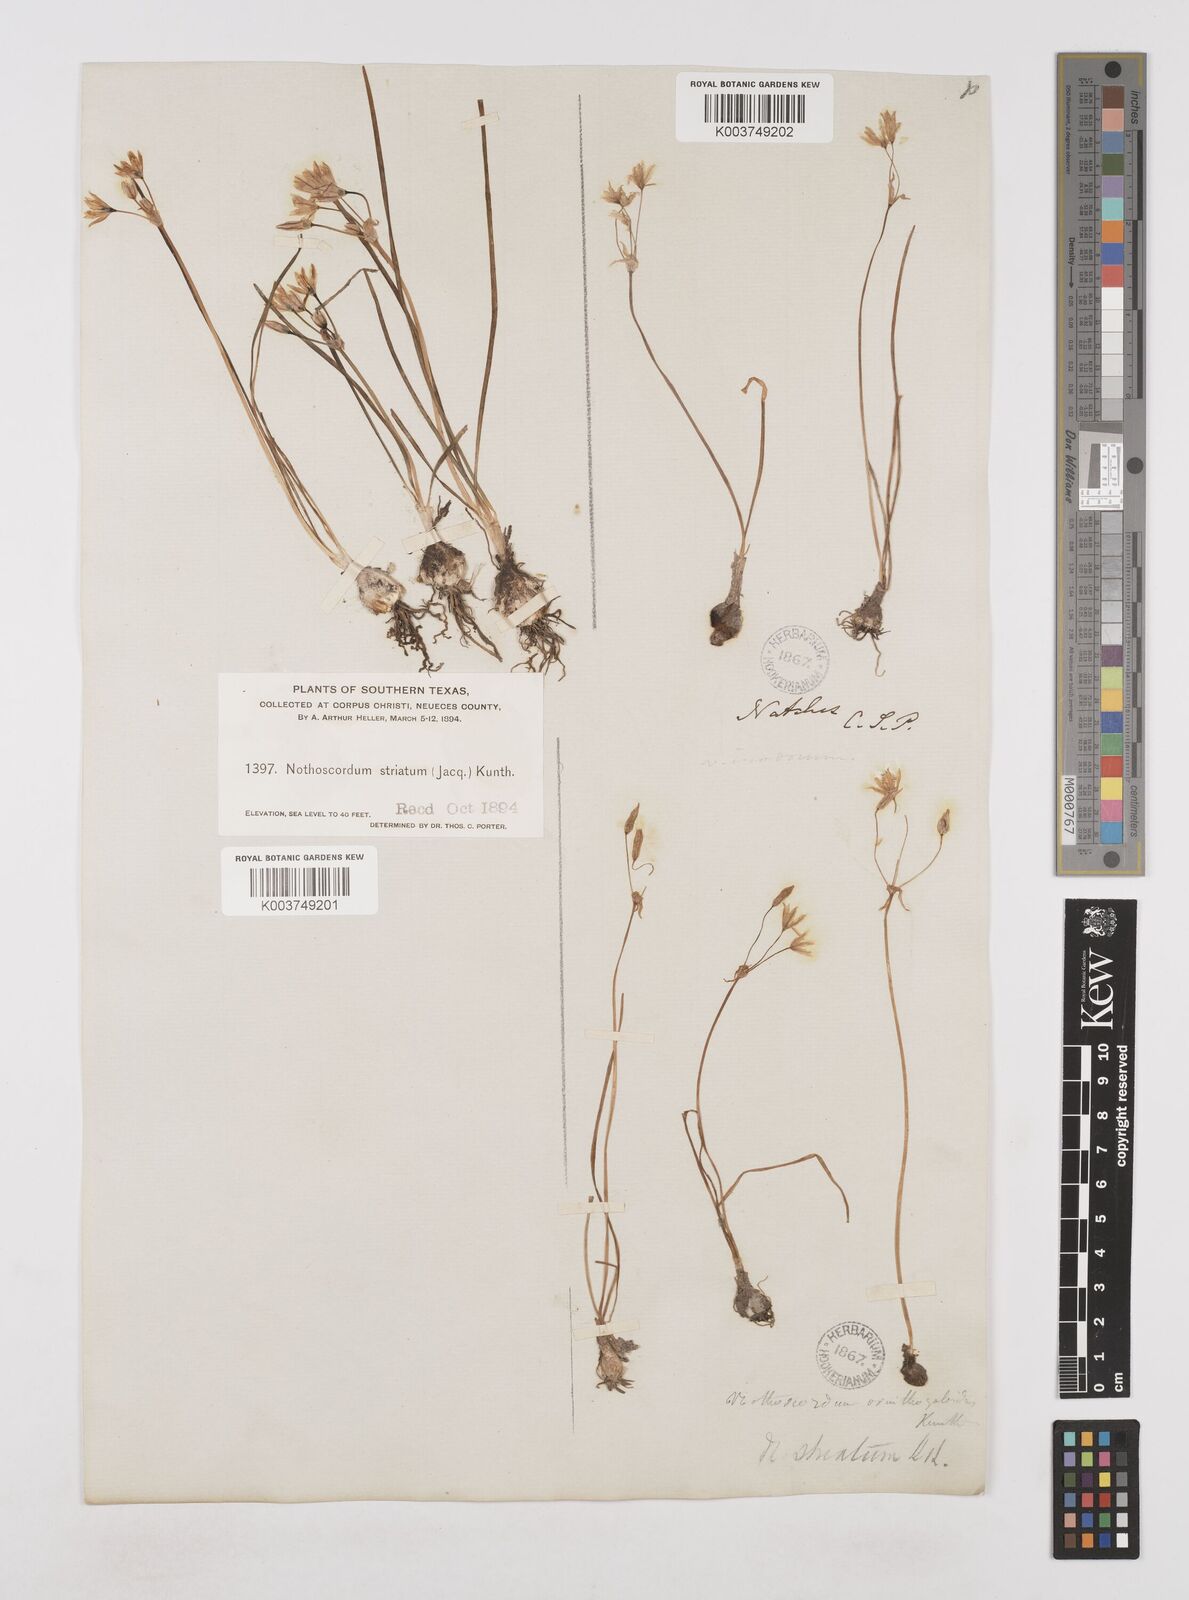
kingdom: Plantae
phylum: Tracheophyta
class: Liliopsida
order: Asparagales
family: Amaryllidaceae
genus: Nothoscordum
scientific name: Nothoscordum bivalve
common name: Crow-poison
